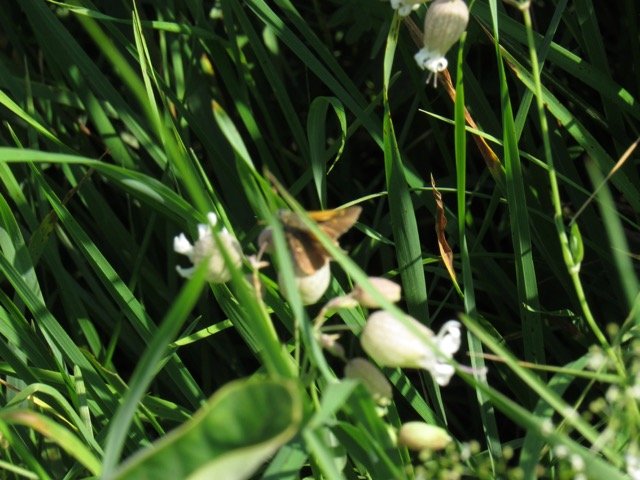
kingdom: Animalia
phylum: Arthropoda
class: Insecta
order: Lepidoptera
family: Hesperiidae
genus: Polites
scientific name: Polites themistocles
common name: Tawny-edged Skipper
